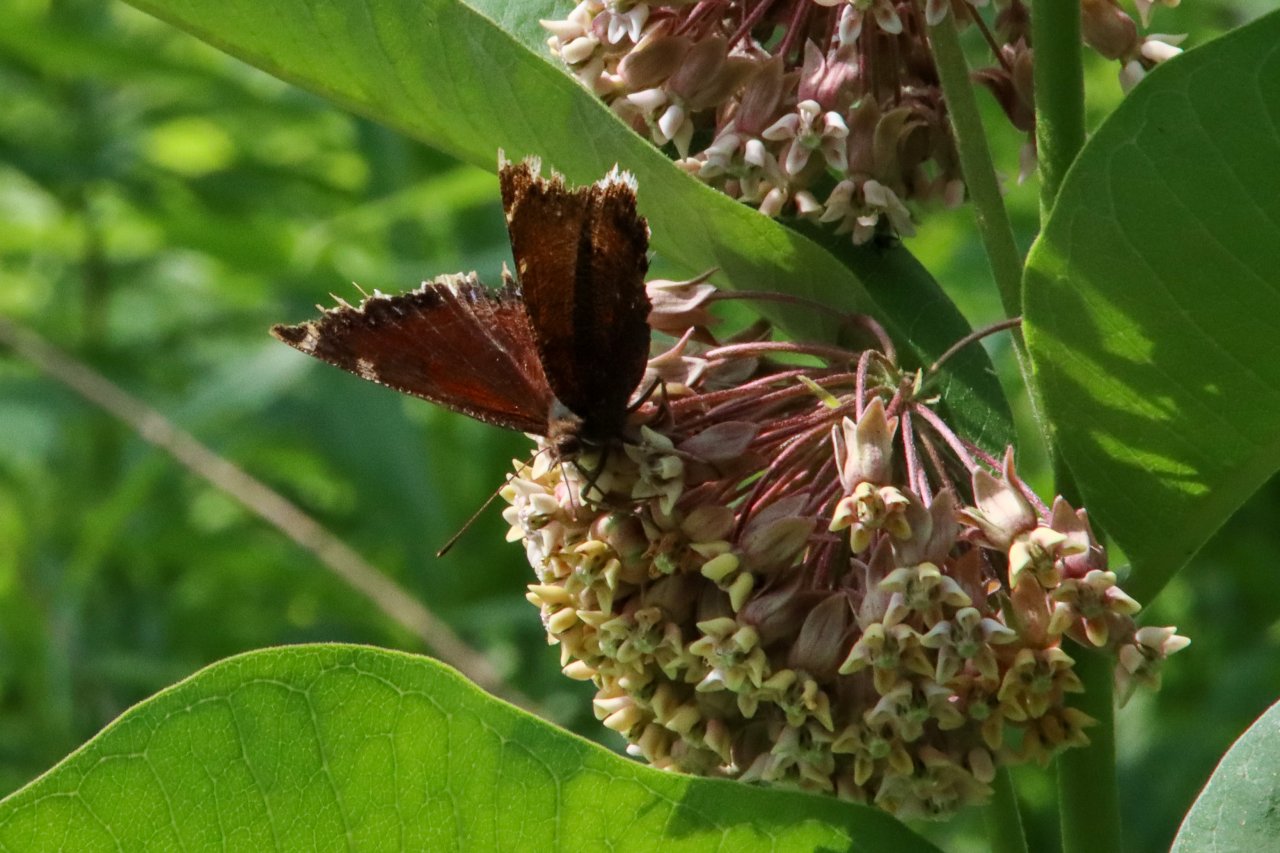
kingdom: Animalia
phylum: Arthropoda
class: Insecta
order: Lepidoptera
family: Nymphalidae
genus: Nymphalis
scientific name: Nymphalis antiopa
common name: Mourning Cloak
